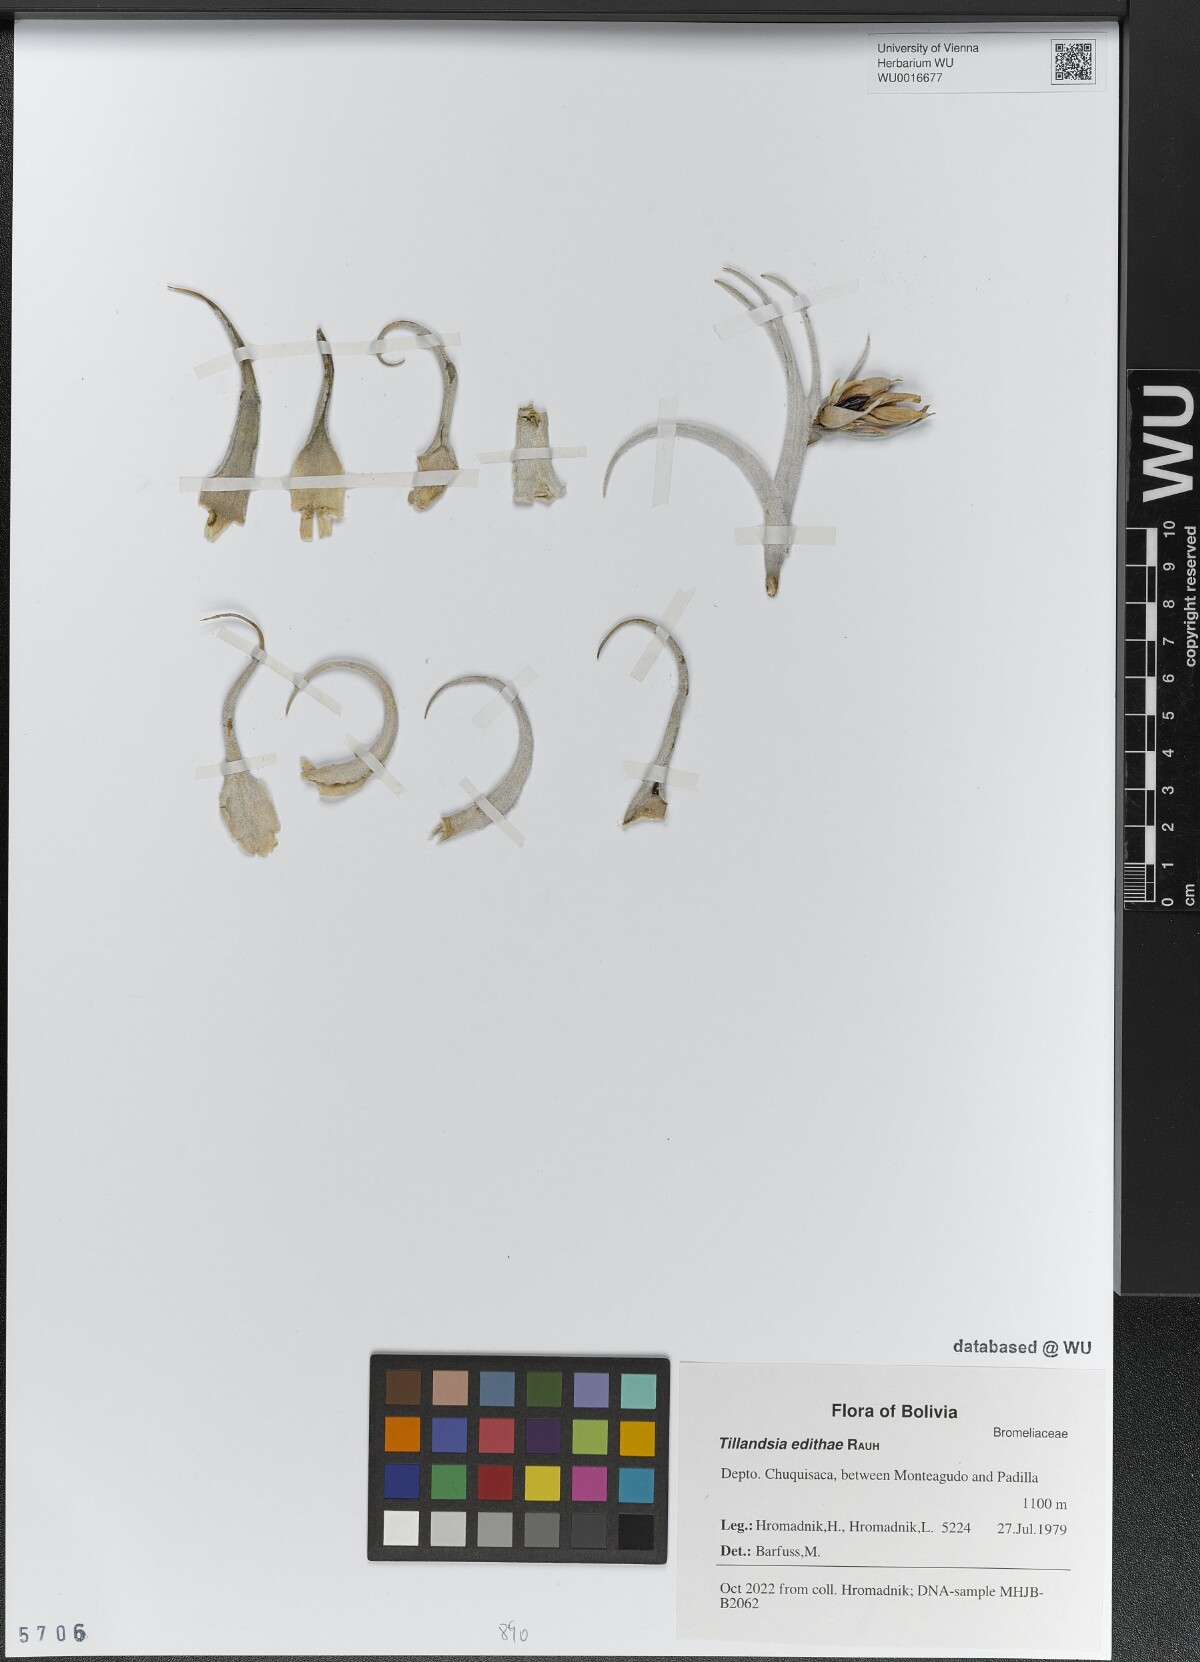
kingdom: Plantae
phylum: Tracheophyta
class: Liliopsida
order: Poales
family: Bromeliaceae
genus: Tillandsia
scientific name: Tillandsia edithae
